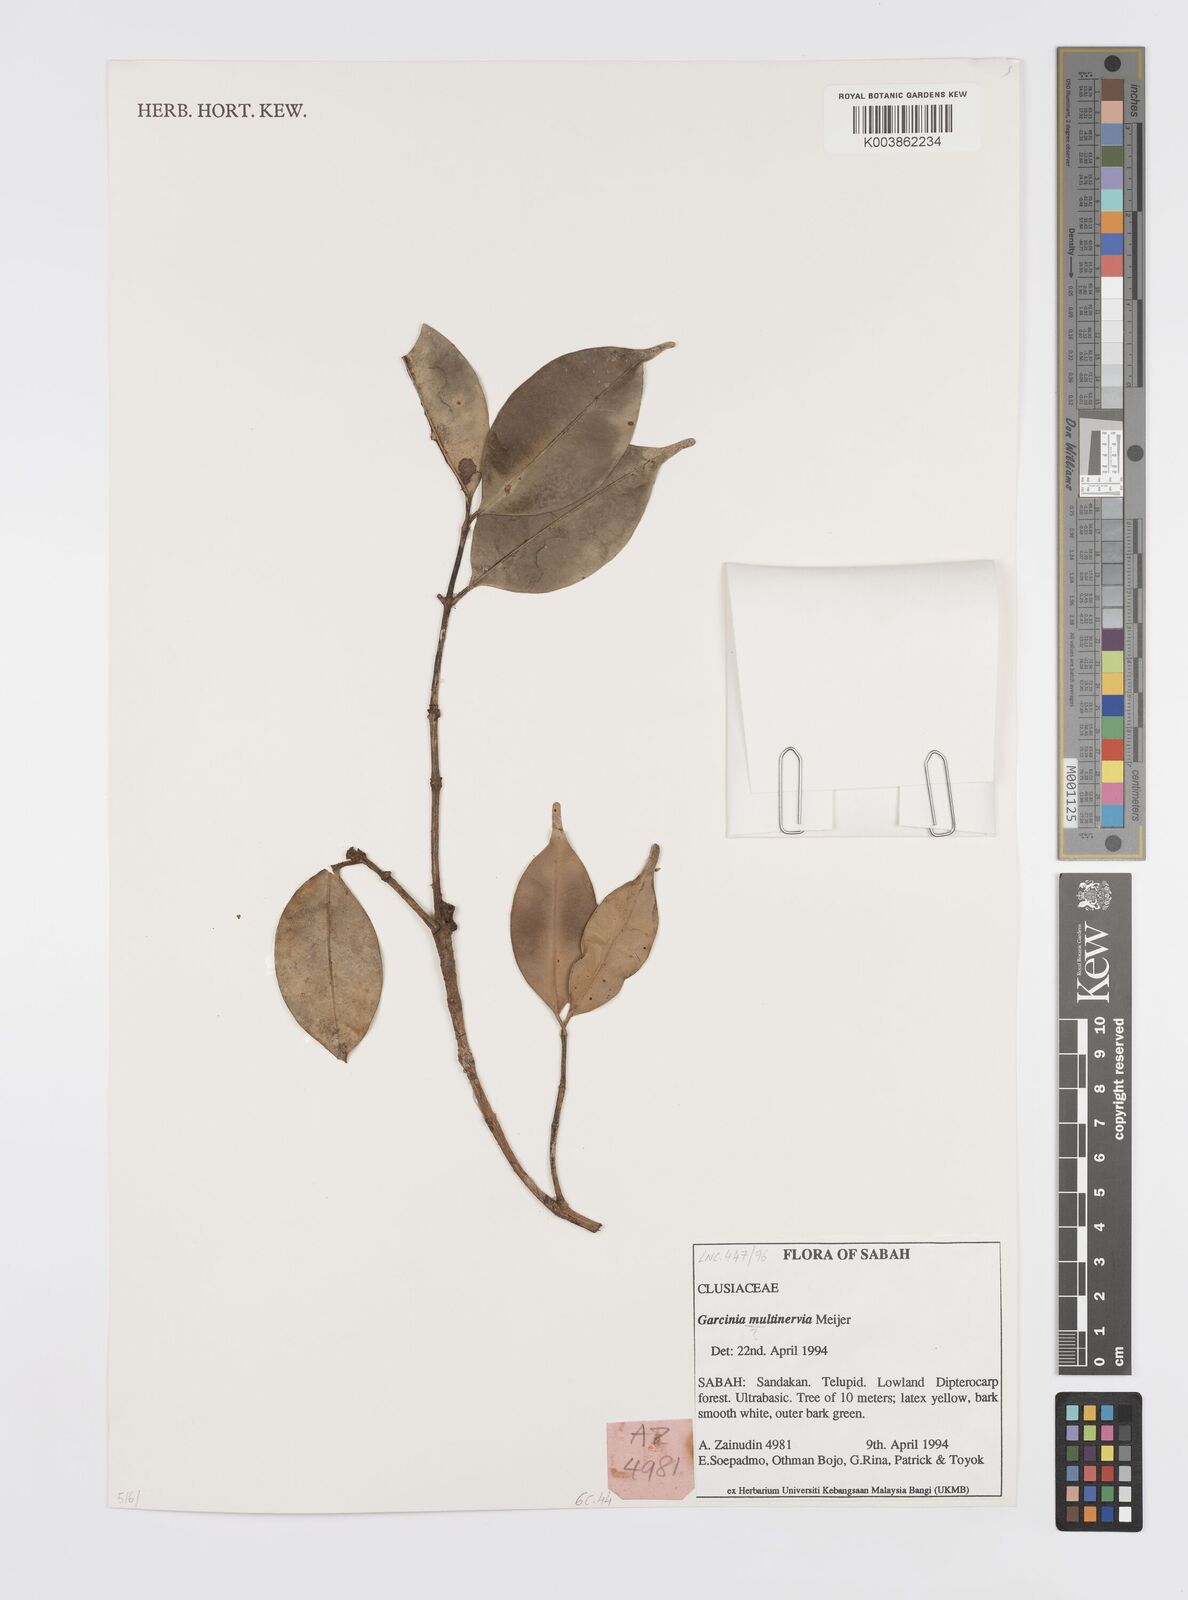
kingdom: Plantae
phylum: Tracheophyta
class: Magnoliopsida
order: Malpighiales
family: Clusiaceae
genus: Garcinia
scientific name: Garcinia
